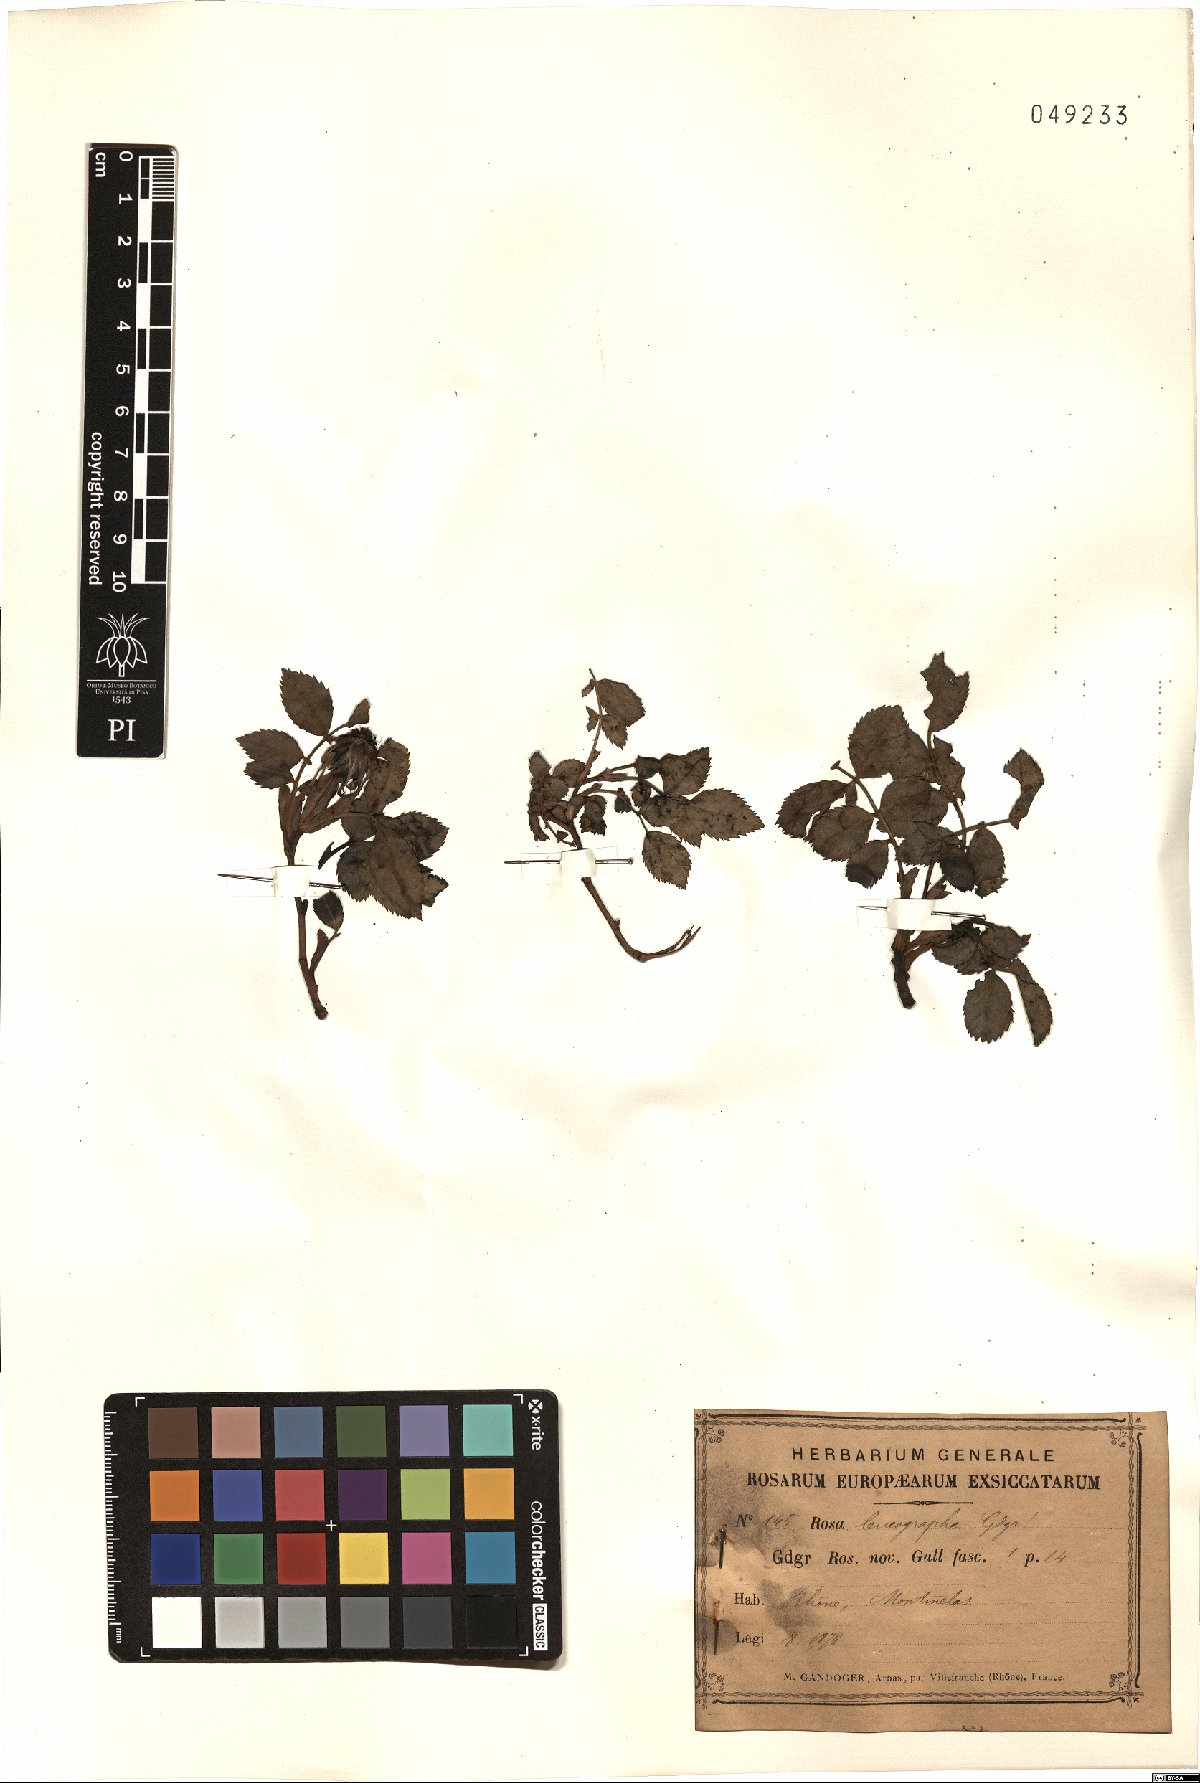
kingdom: Plantae
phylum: Tracheophyta
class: Magnoliopsida
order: Rosales
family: Rosaceae
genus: Rosa
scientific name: Rosa leucographa
